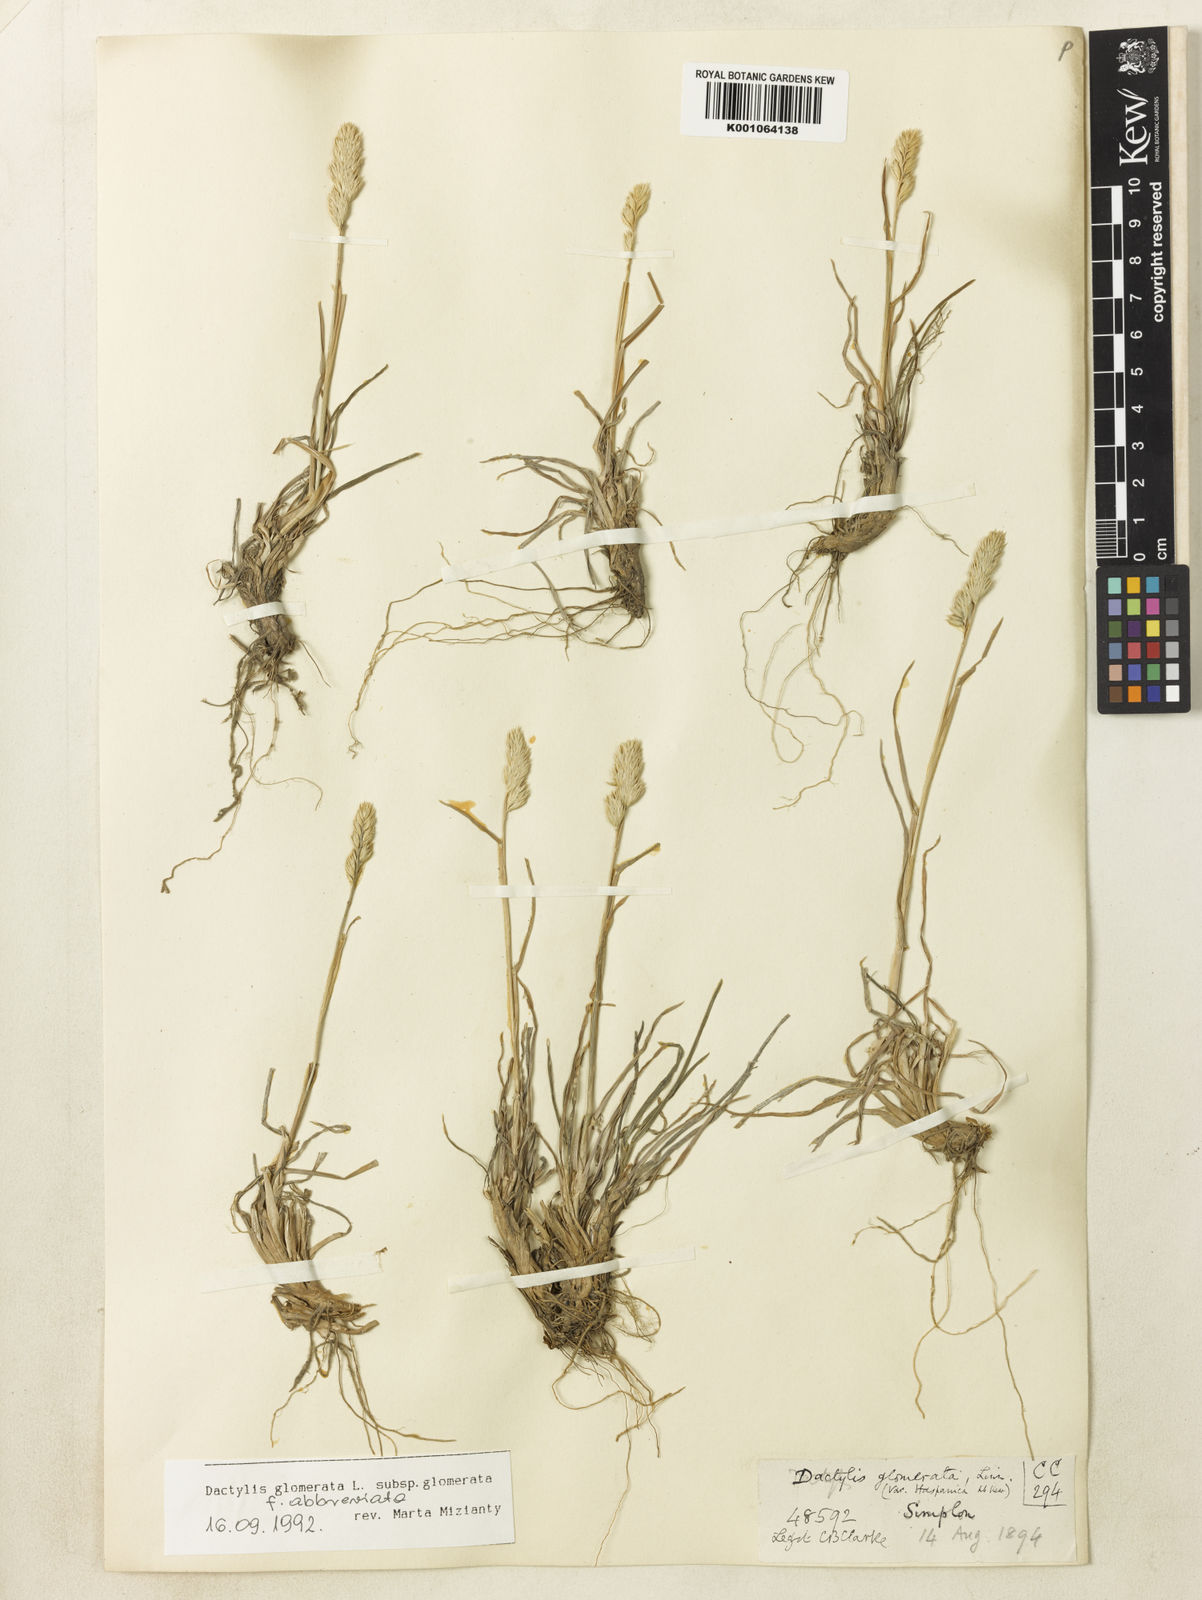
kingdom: Plantae
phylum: Tracheophyta
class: Liliopsida
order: Poales
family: Poaceae
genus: Dactylis
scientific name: Dactylis glomerata
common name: Orchardgrass
